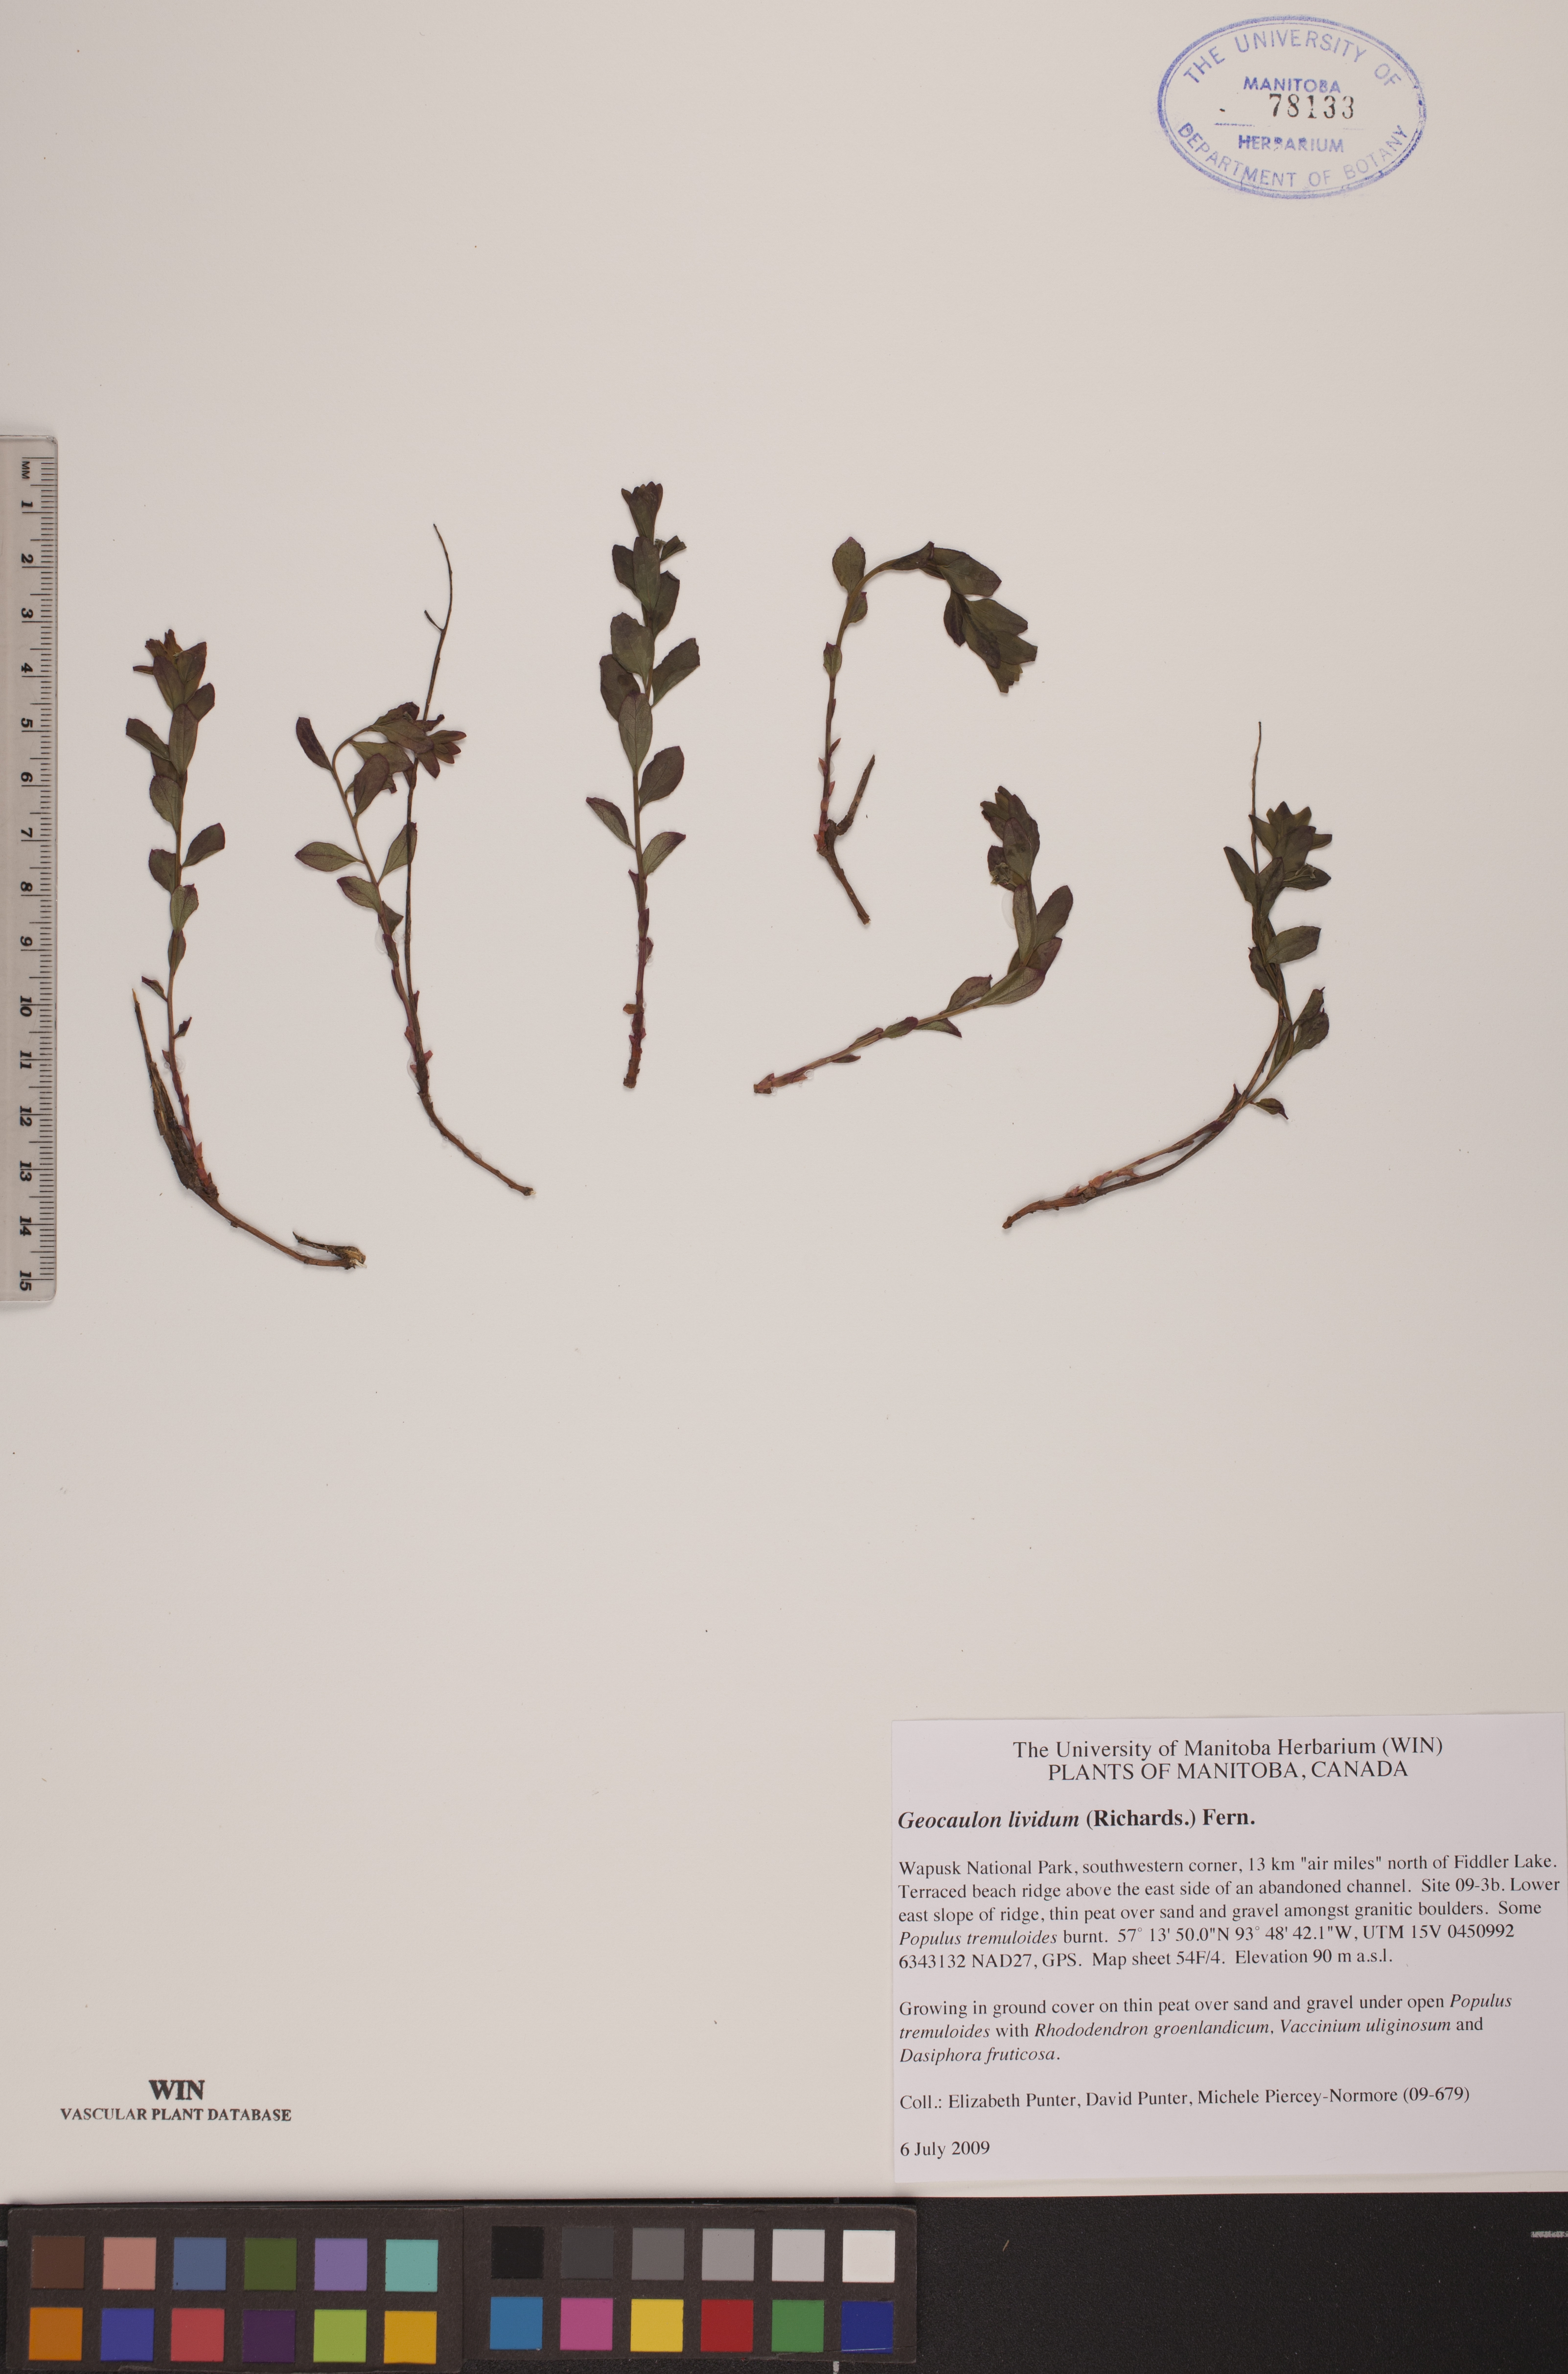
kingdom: Plantae
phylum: Tracheophyta
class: Magnoliopsida
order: Santalales
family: Comandraceae
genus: Geocaulon
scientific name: Geocaulon lividum
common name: Earthberry
